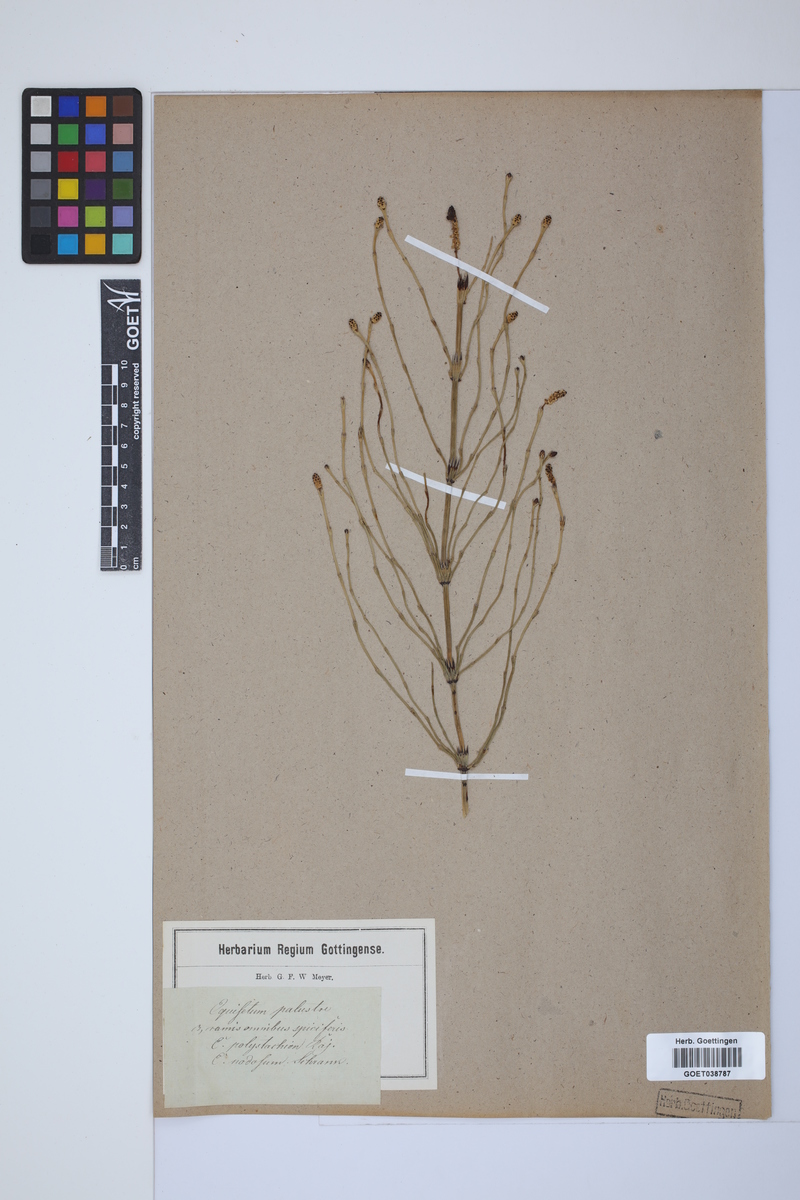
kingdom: Plantae
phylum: Tracheophyta
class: Polypodiopsida
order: Equisetales
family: Equisetaceae
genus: Equisetum
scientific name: Equisetum palustre
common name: Marsh horsetail
